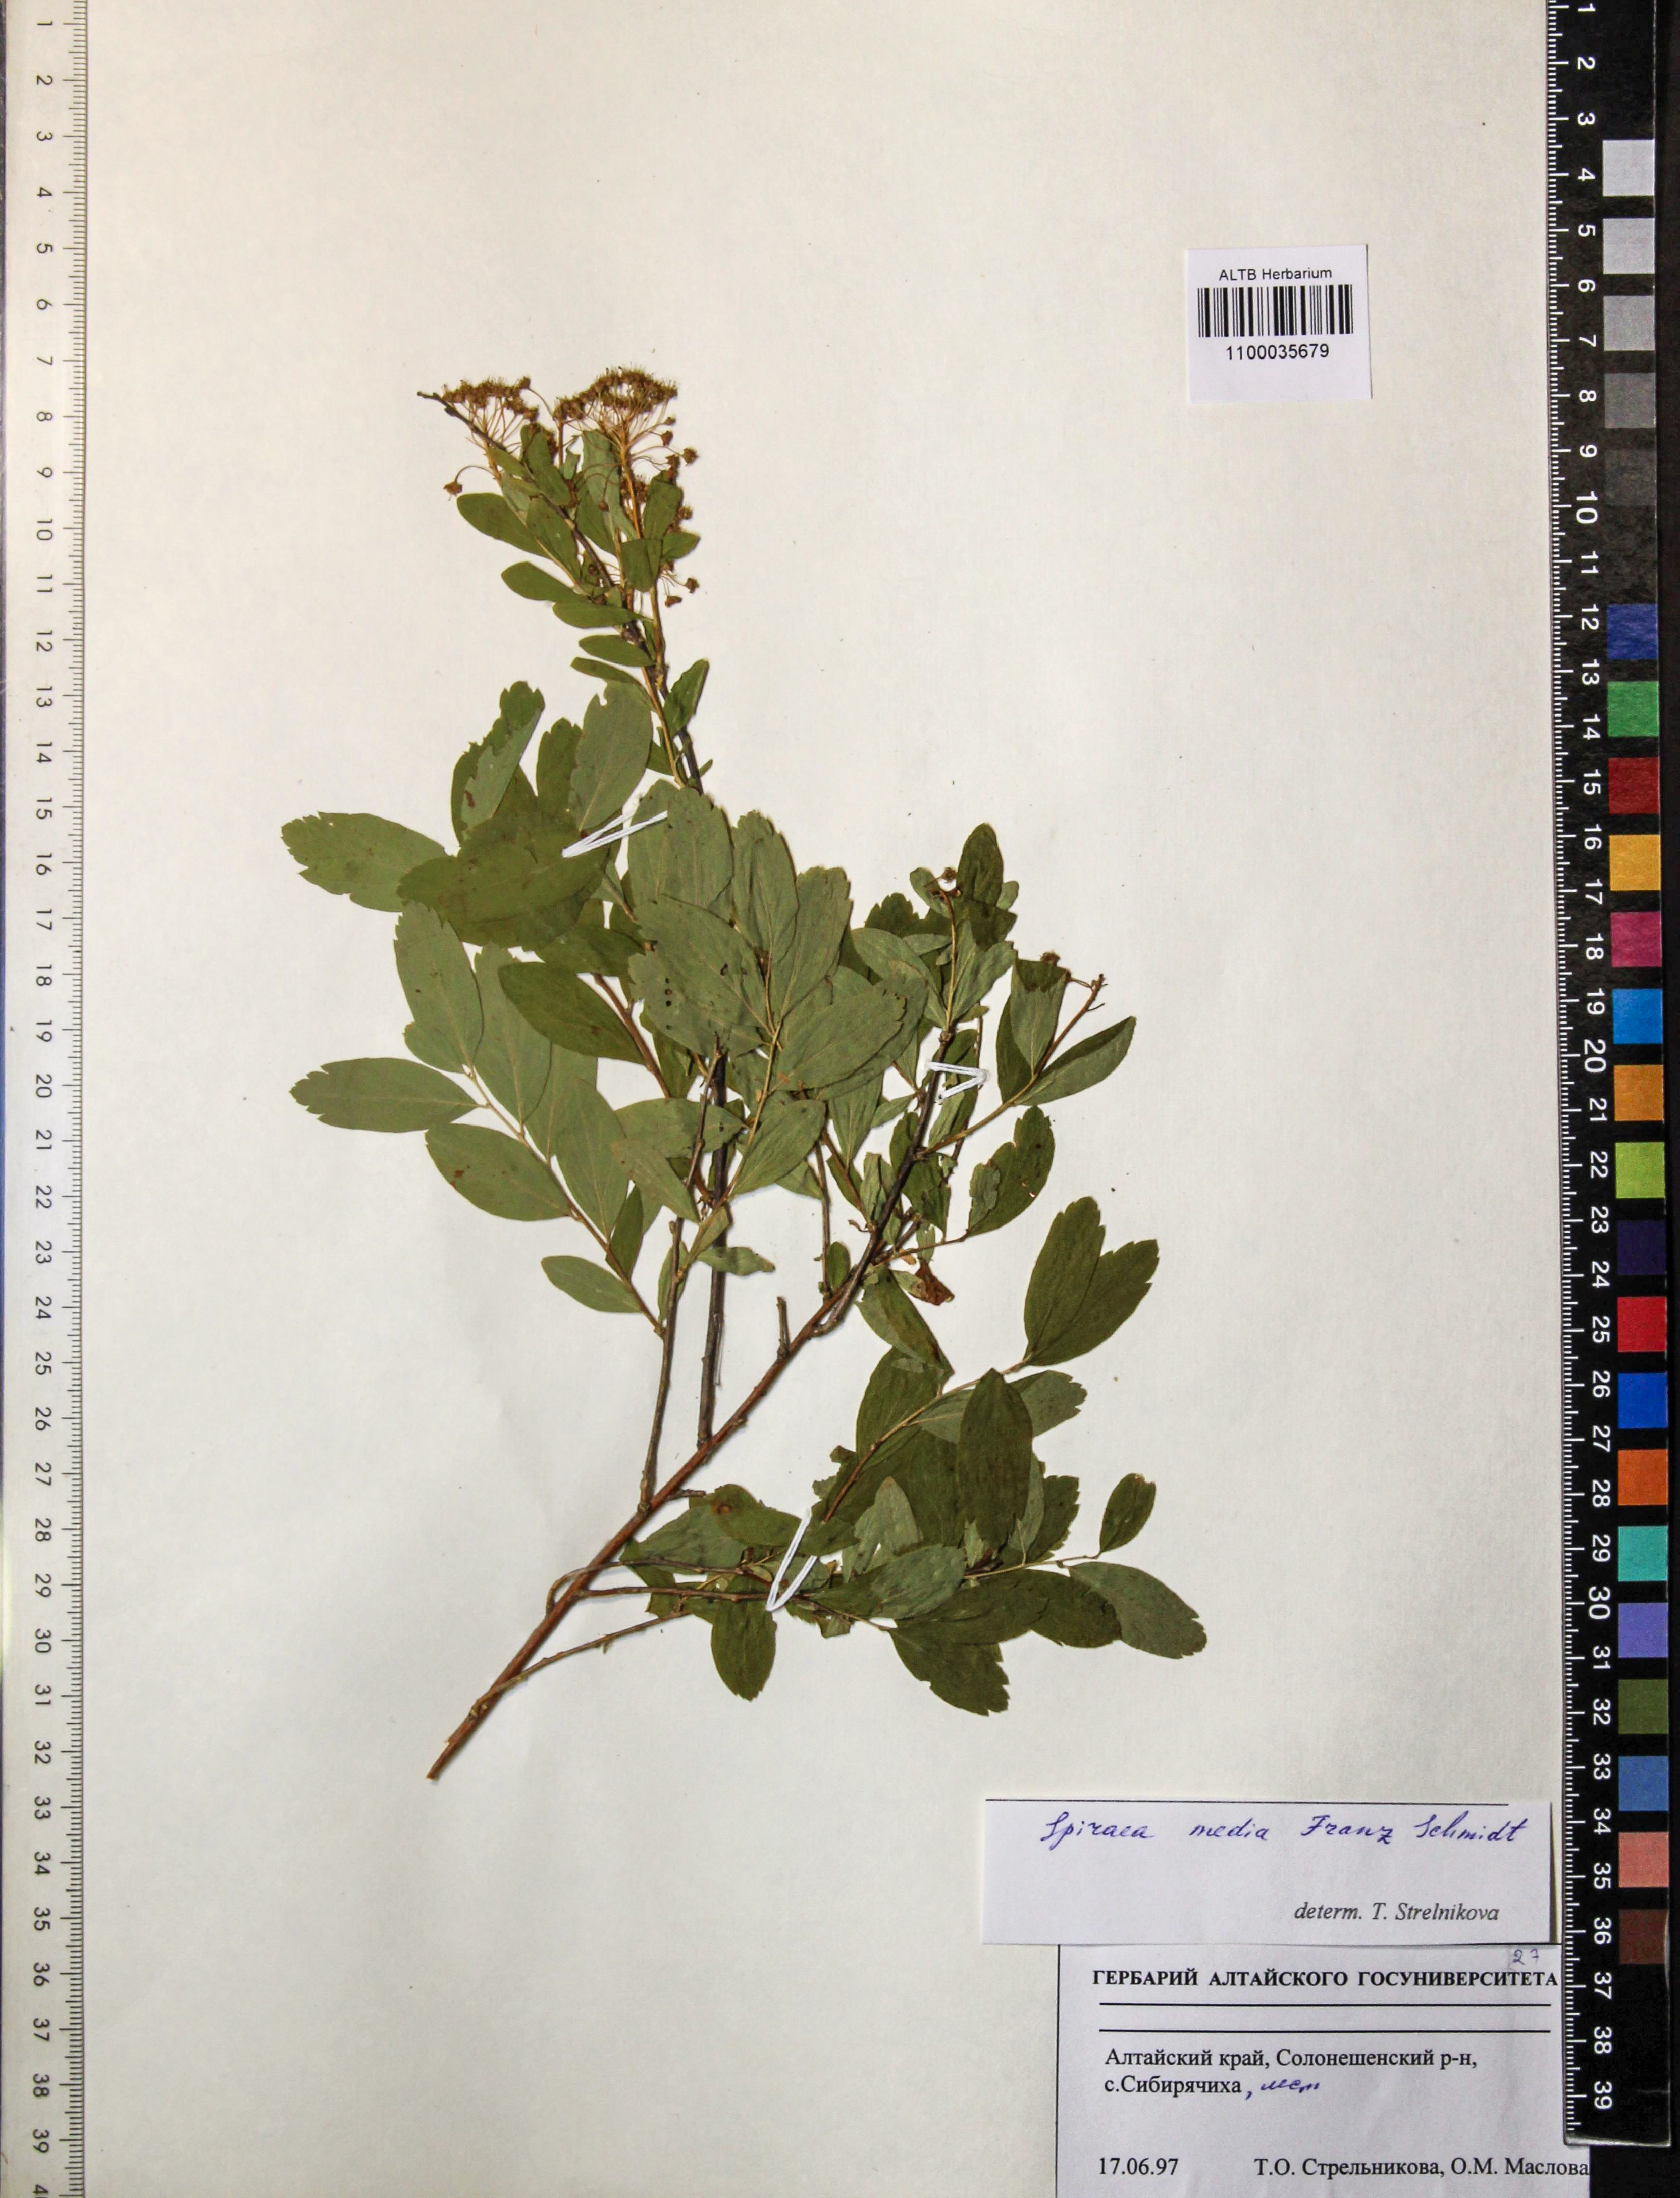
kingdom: Plantae
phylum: Tracheophyta
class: Magnoliopsida
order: Rosales
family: Rosaceae
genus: Spiraea
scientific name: Spiraea media
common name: Russian spiraea
